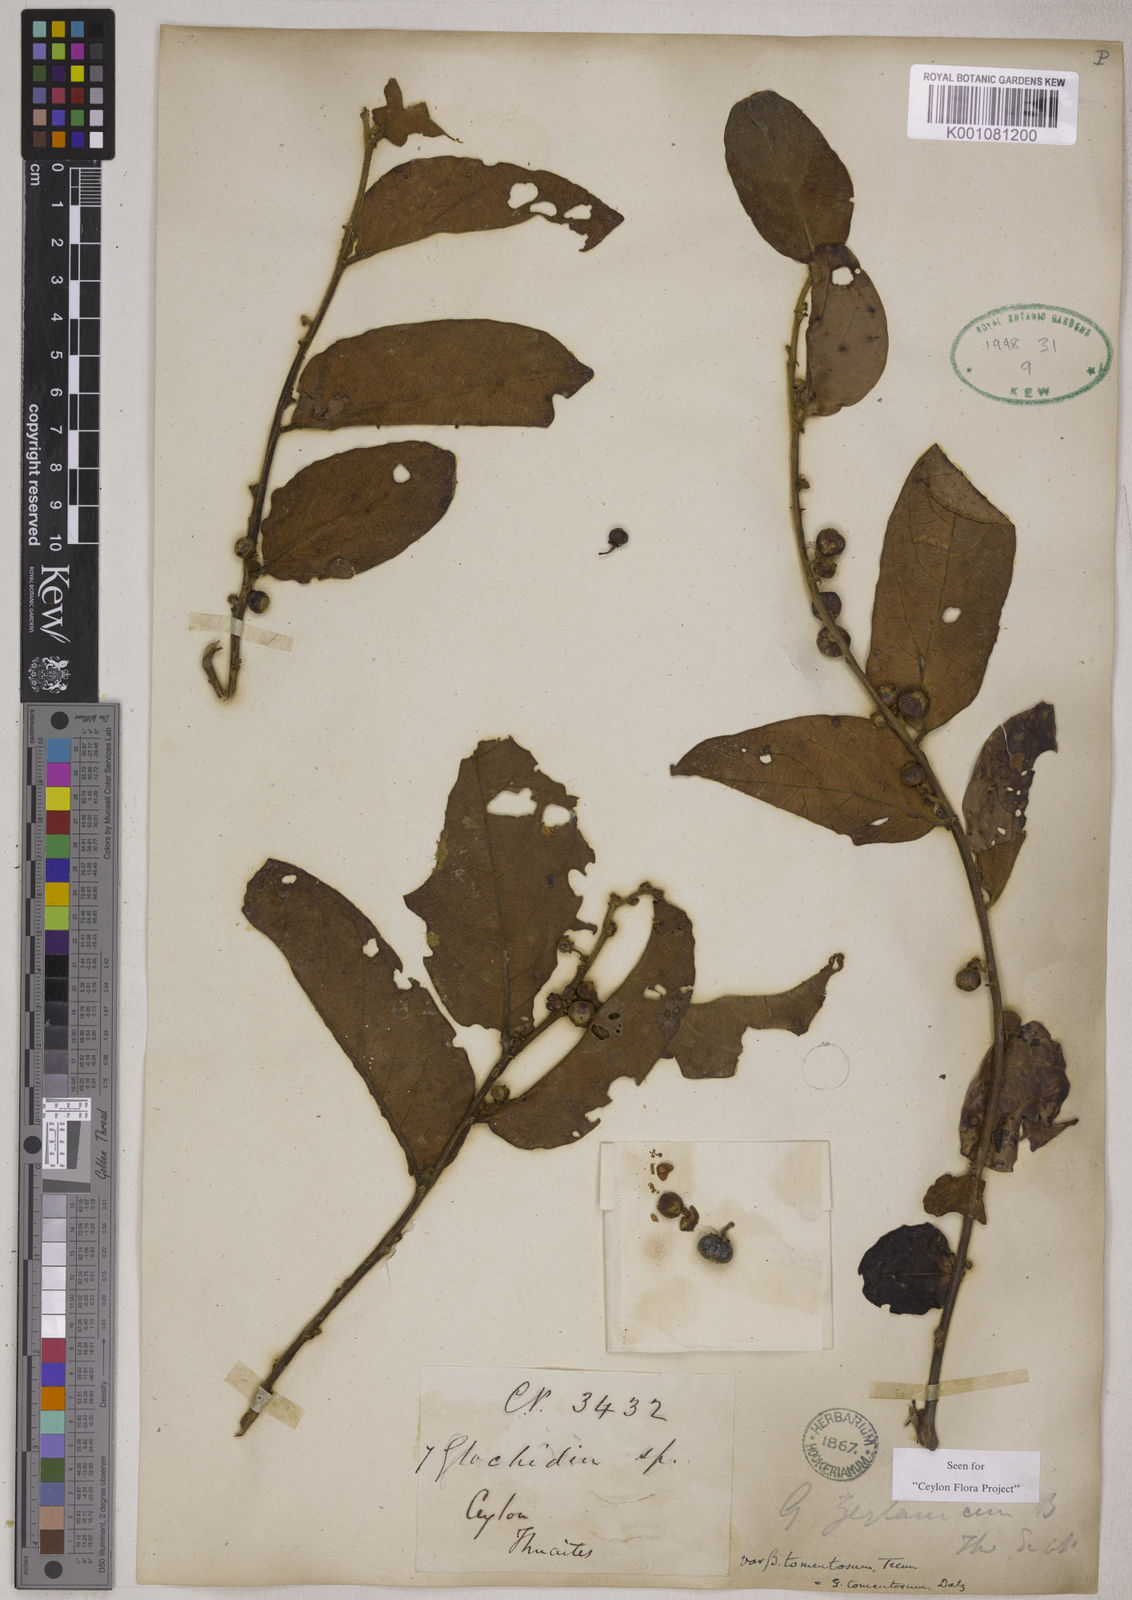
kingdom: Plantae
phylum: Tracheophyta
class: Magnoliopsida
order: Malpighiales
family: Phyllanthaceae
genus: Glochidion
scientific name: Glochidion zeylanicum
